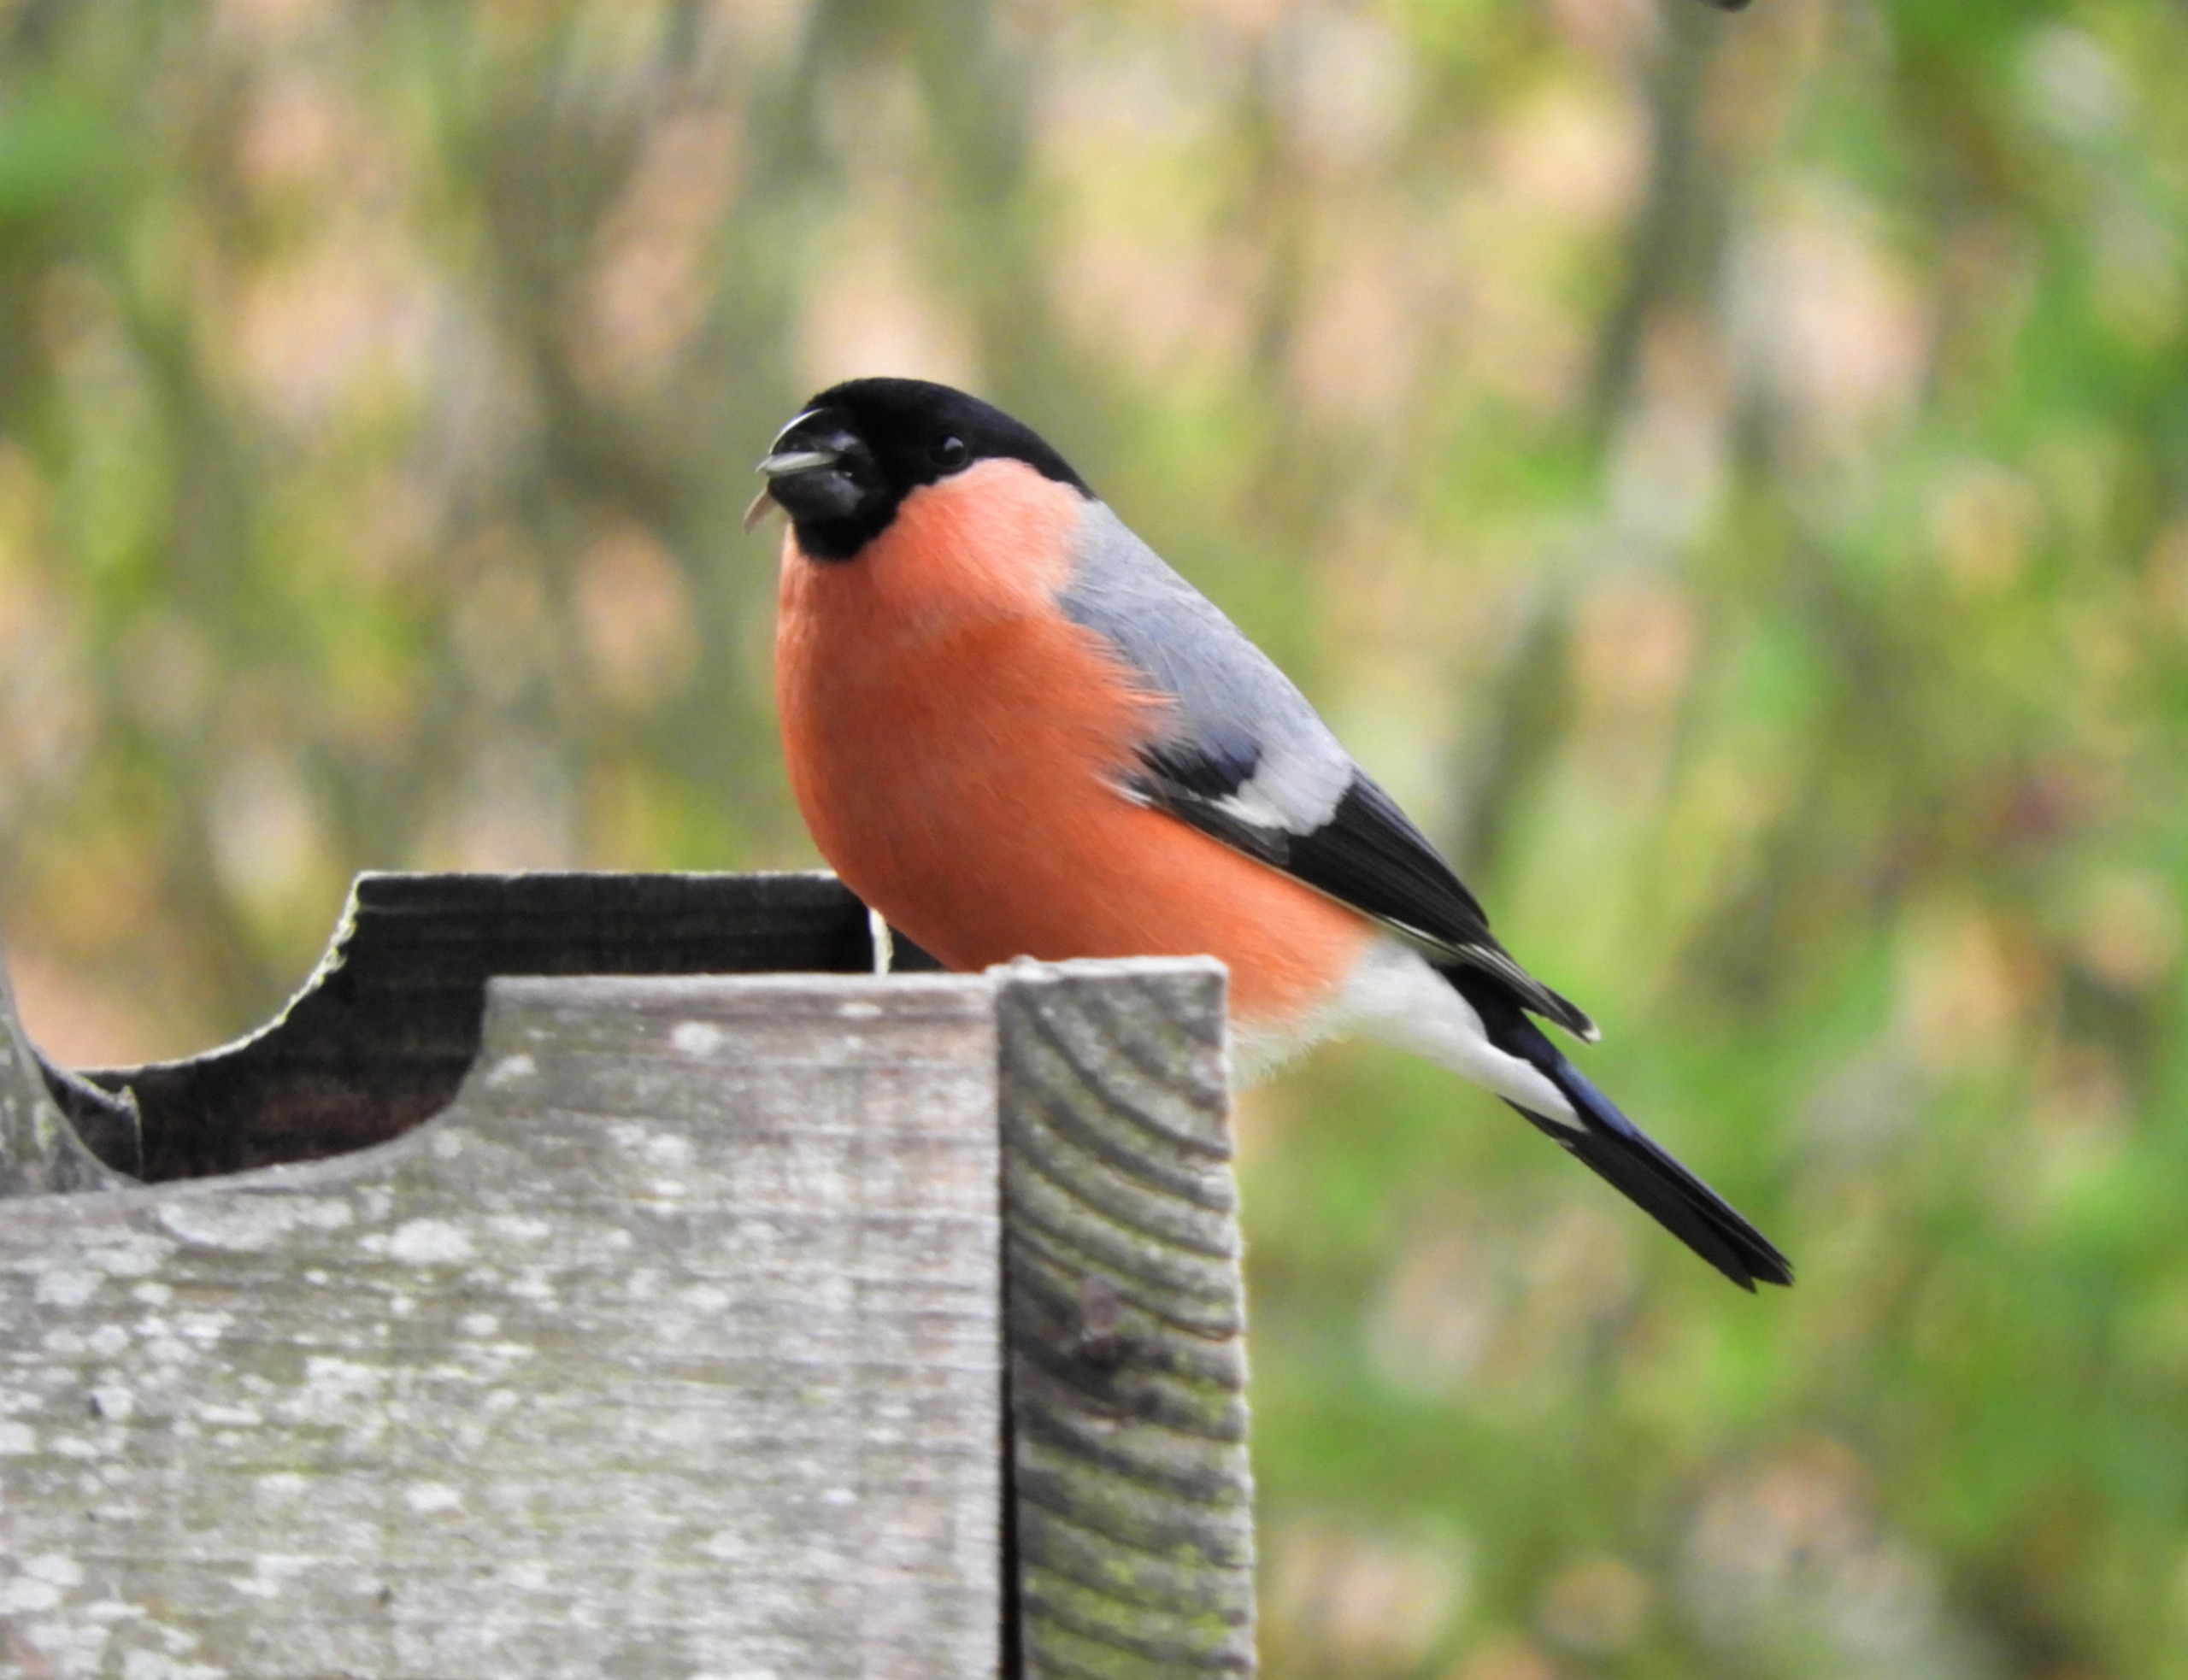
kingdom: Animalia
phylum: Chordata
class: Aves
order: Passeriformes
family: Fringillidae
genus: Pyrrhula
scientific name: Pyrrhula pyrrhula
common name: Dompap
